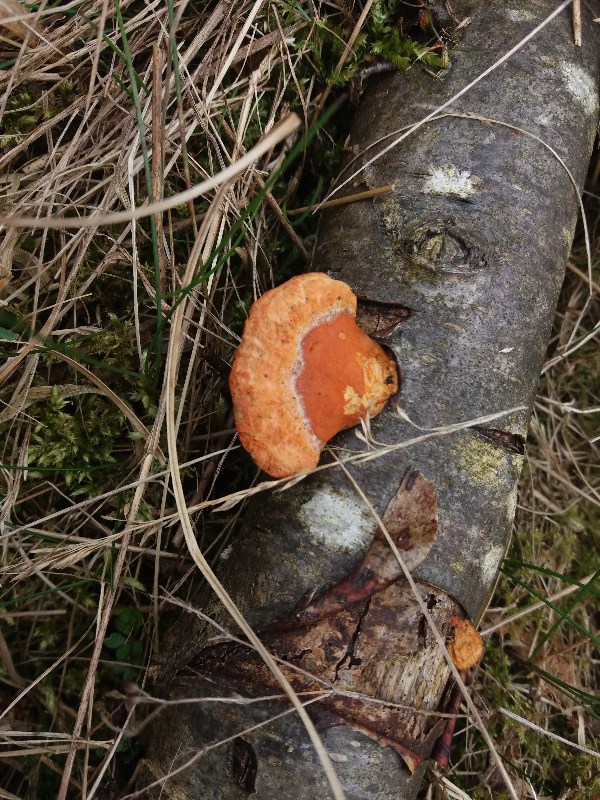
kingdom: Fungi
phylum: Basidiomycota
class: Agaricomycetes
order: Polyporales
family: Polyporaceae
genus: Trametes
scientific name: Trametes cinnabarina
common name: cinnoberporesvamp
